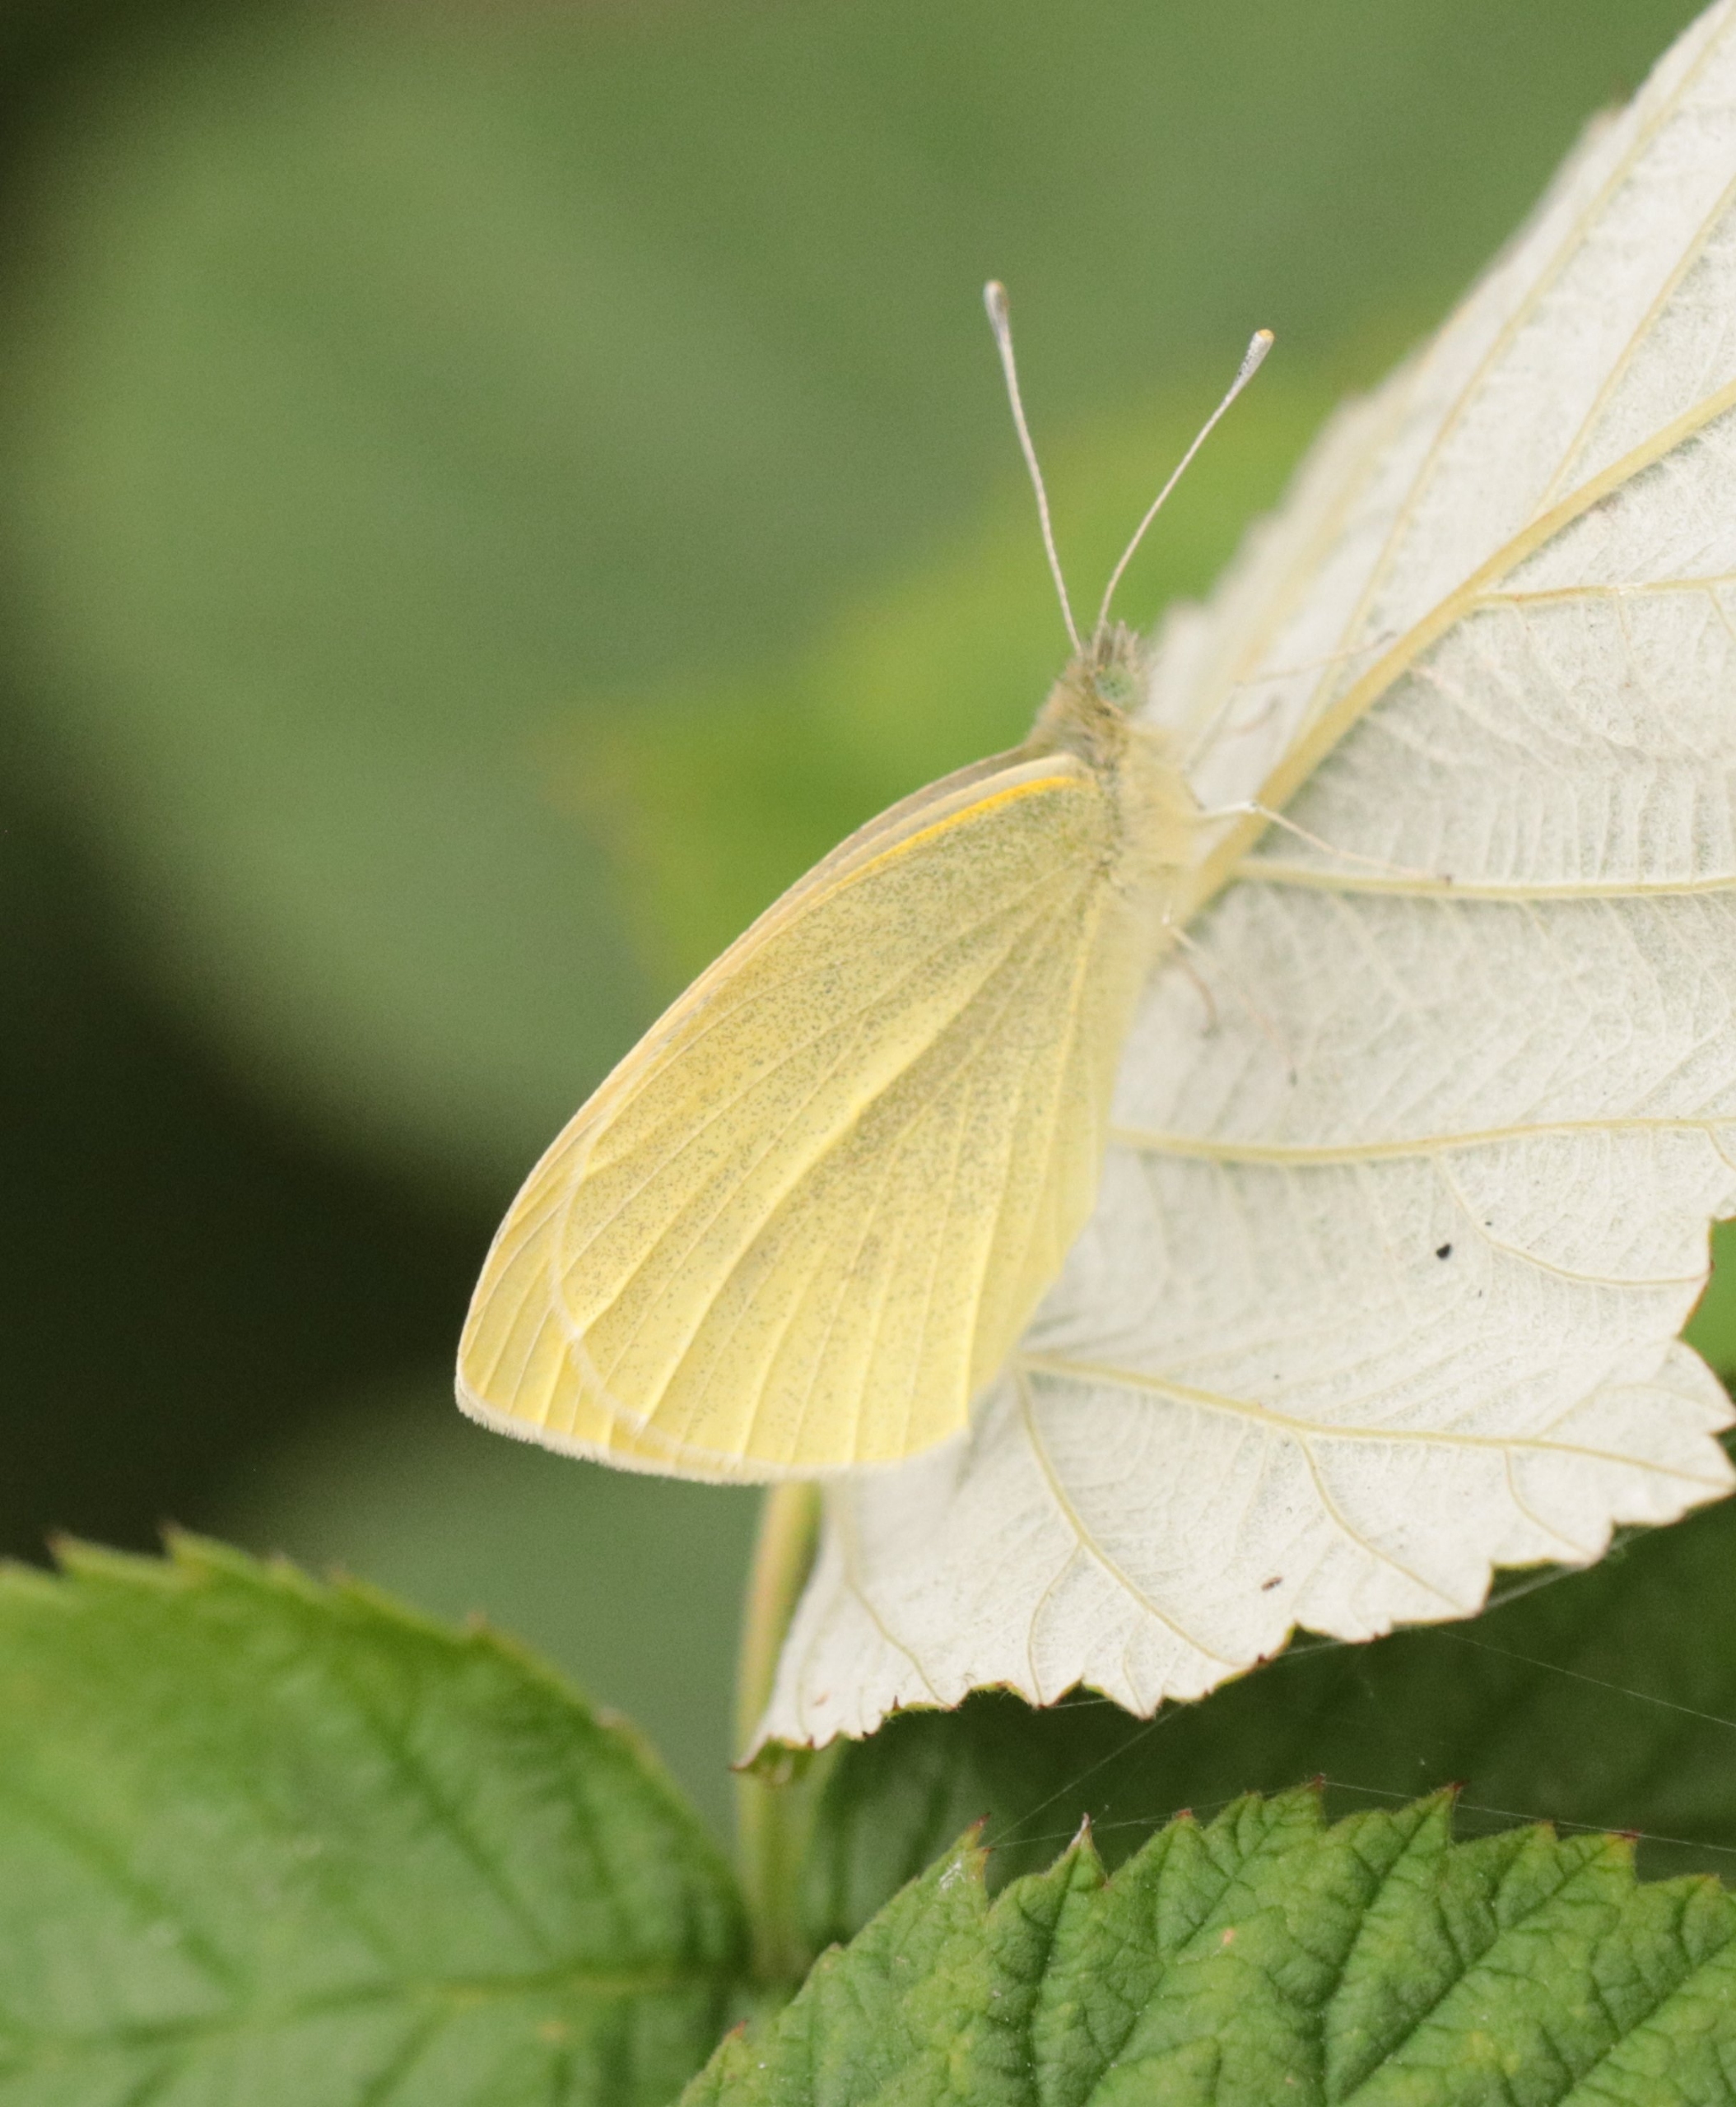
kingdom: Animalia
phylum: Arthropoda
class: Insecta
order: Lepidoptera
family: Pieridae
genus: Pieris
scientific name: Pieris rapae
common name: Lille kålsommerfugl
